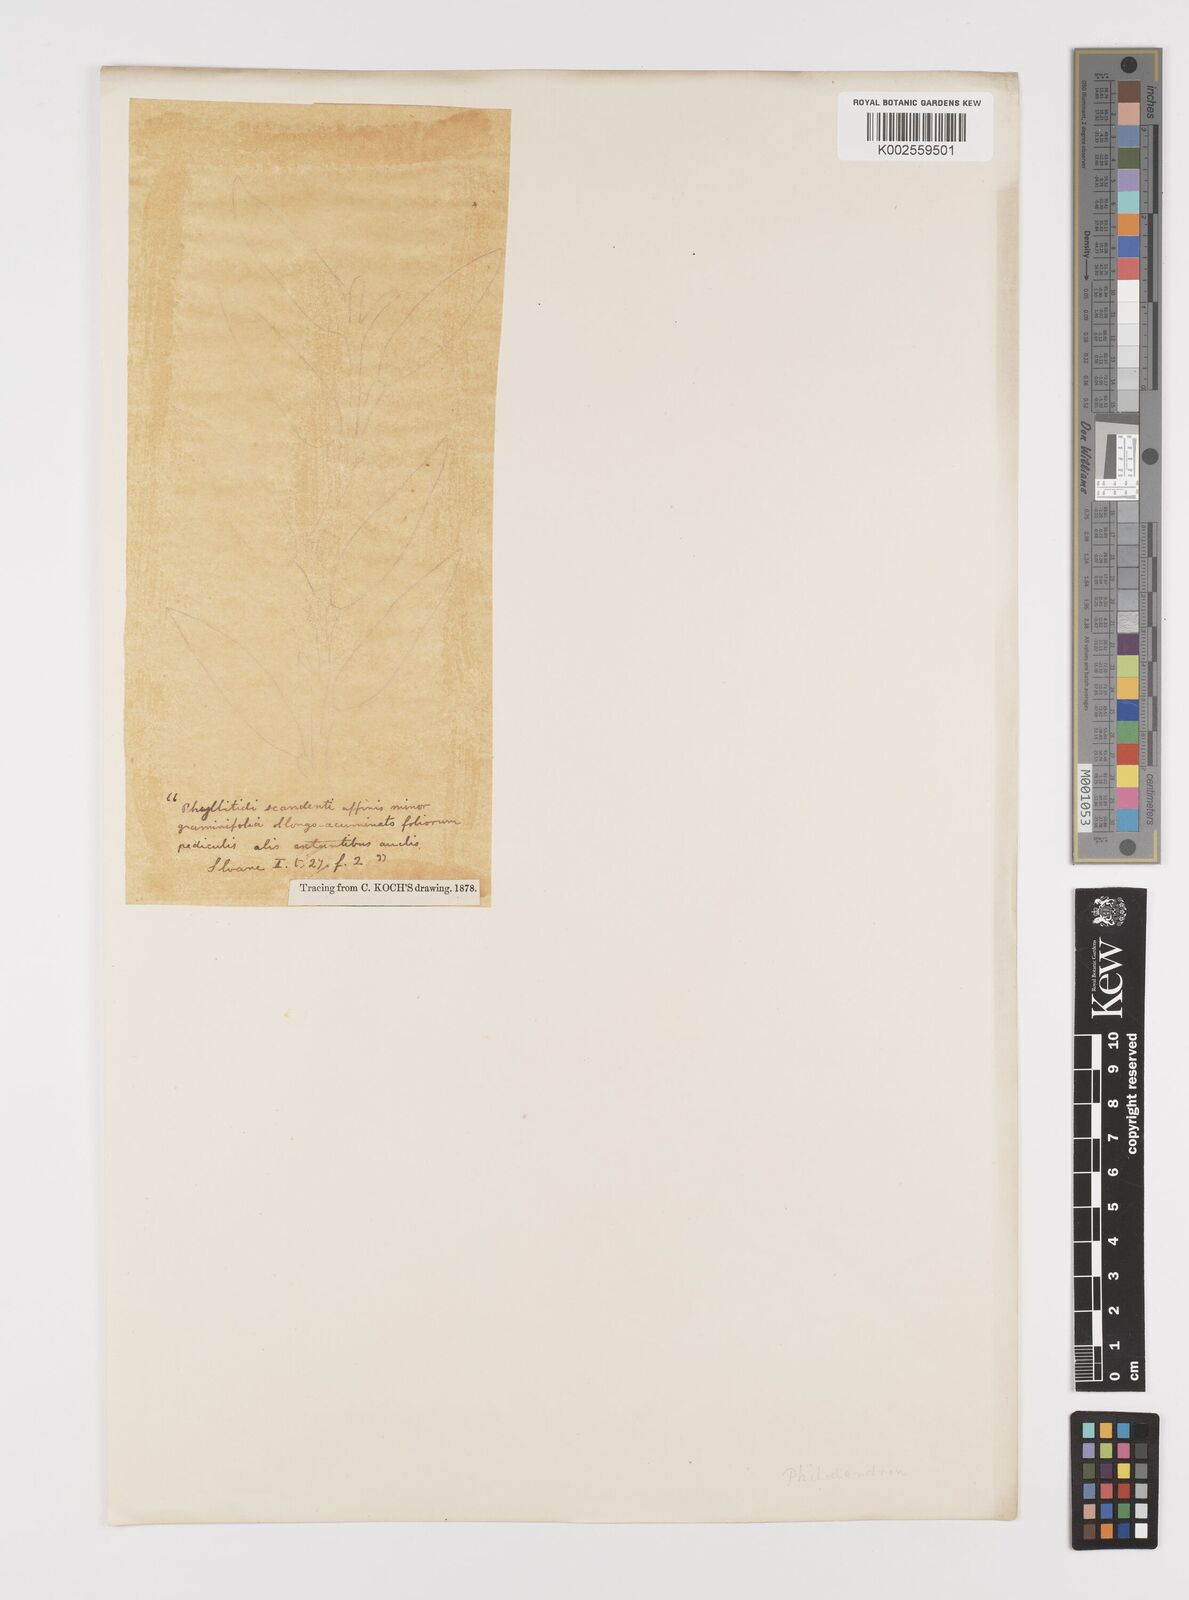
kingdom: Plantae
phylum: Tracheophyta
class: Liliopsida
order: Alismatales
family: Araceae
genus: Philodendron
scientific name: Philodendron
